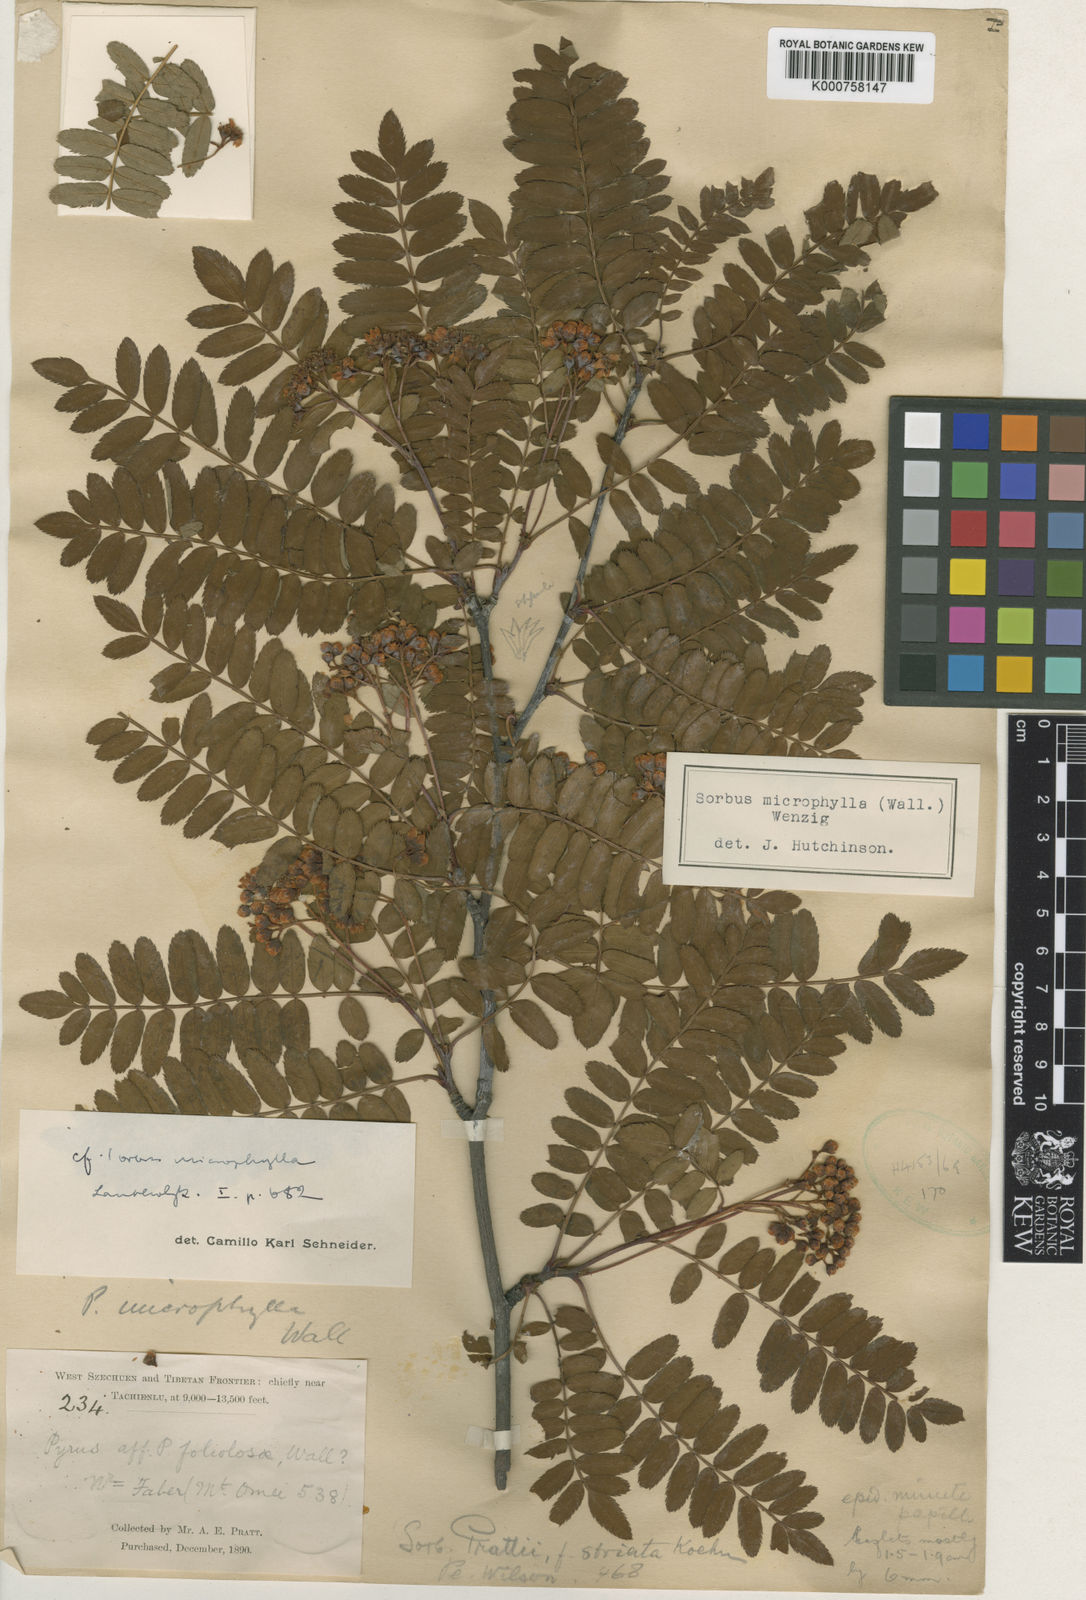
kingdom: Plantae
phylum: Tracheophyta
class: Magnoliopsida
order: Rosales
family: Rosaceae
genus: Sorbus
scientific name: Sorbus prattii
